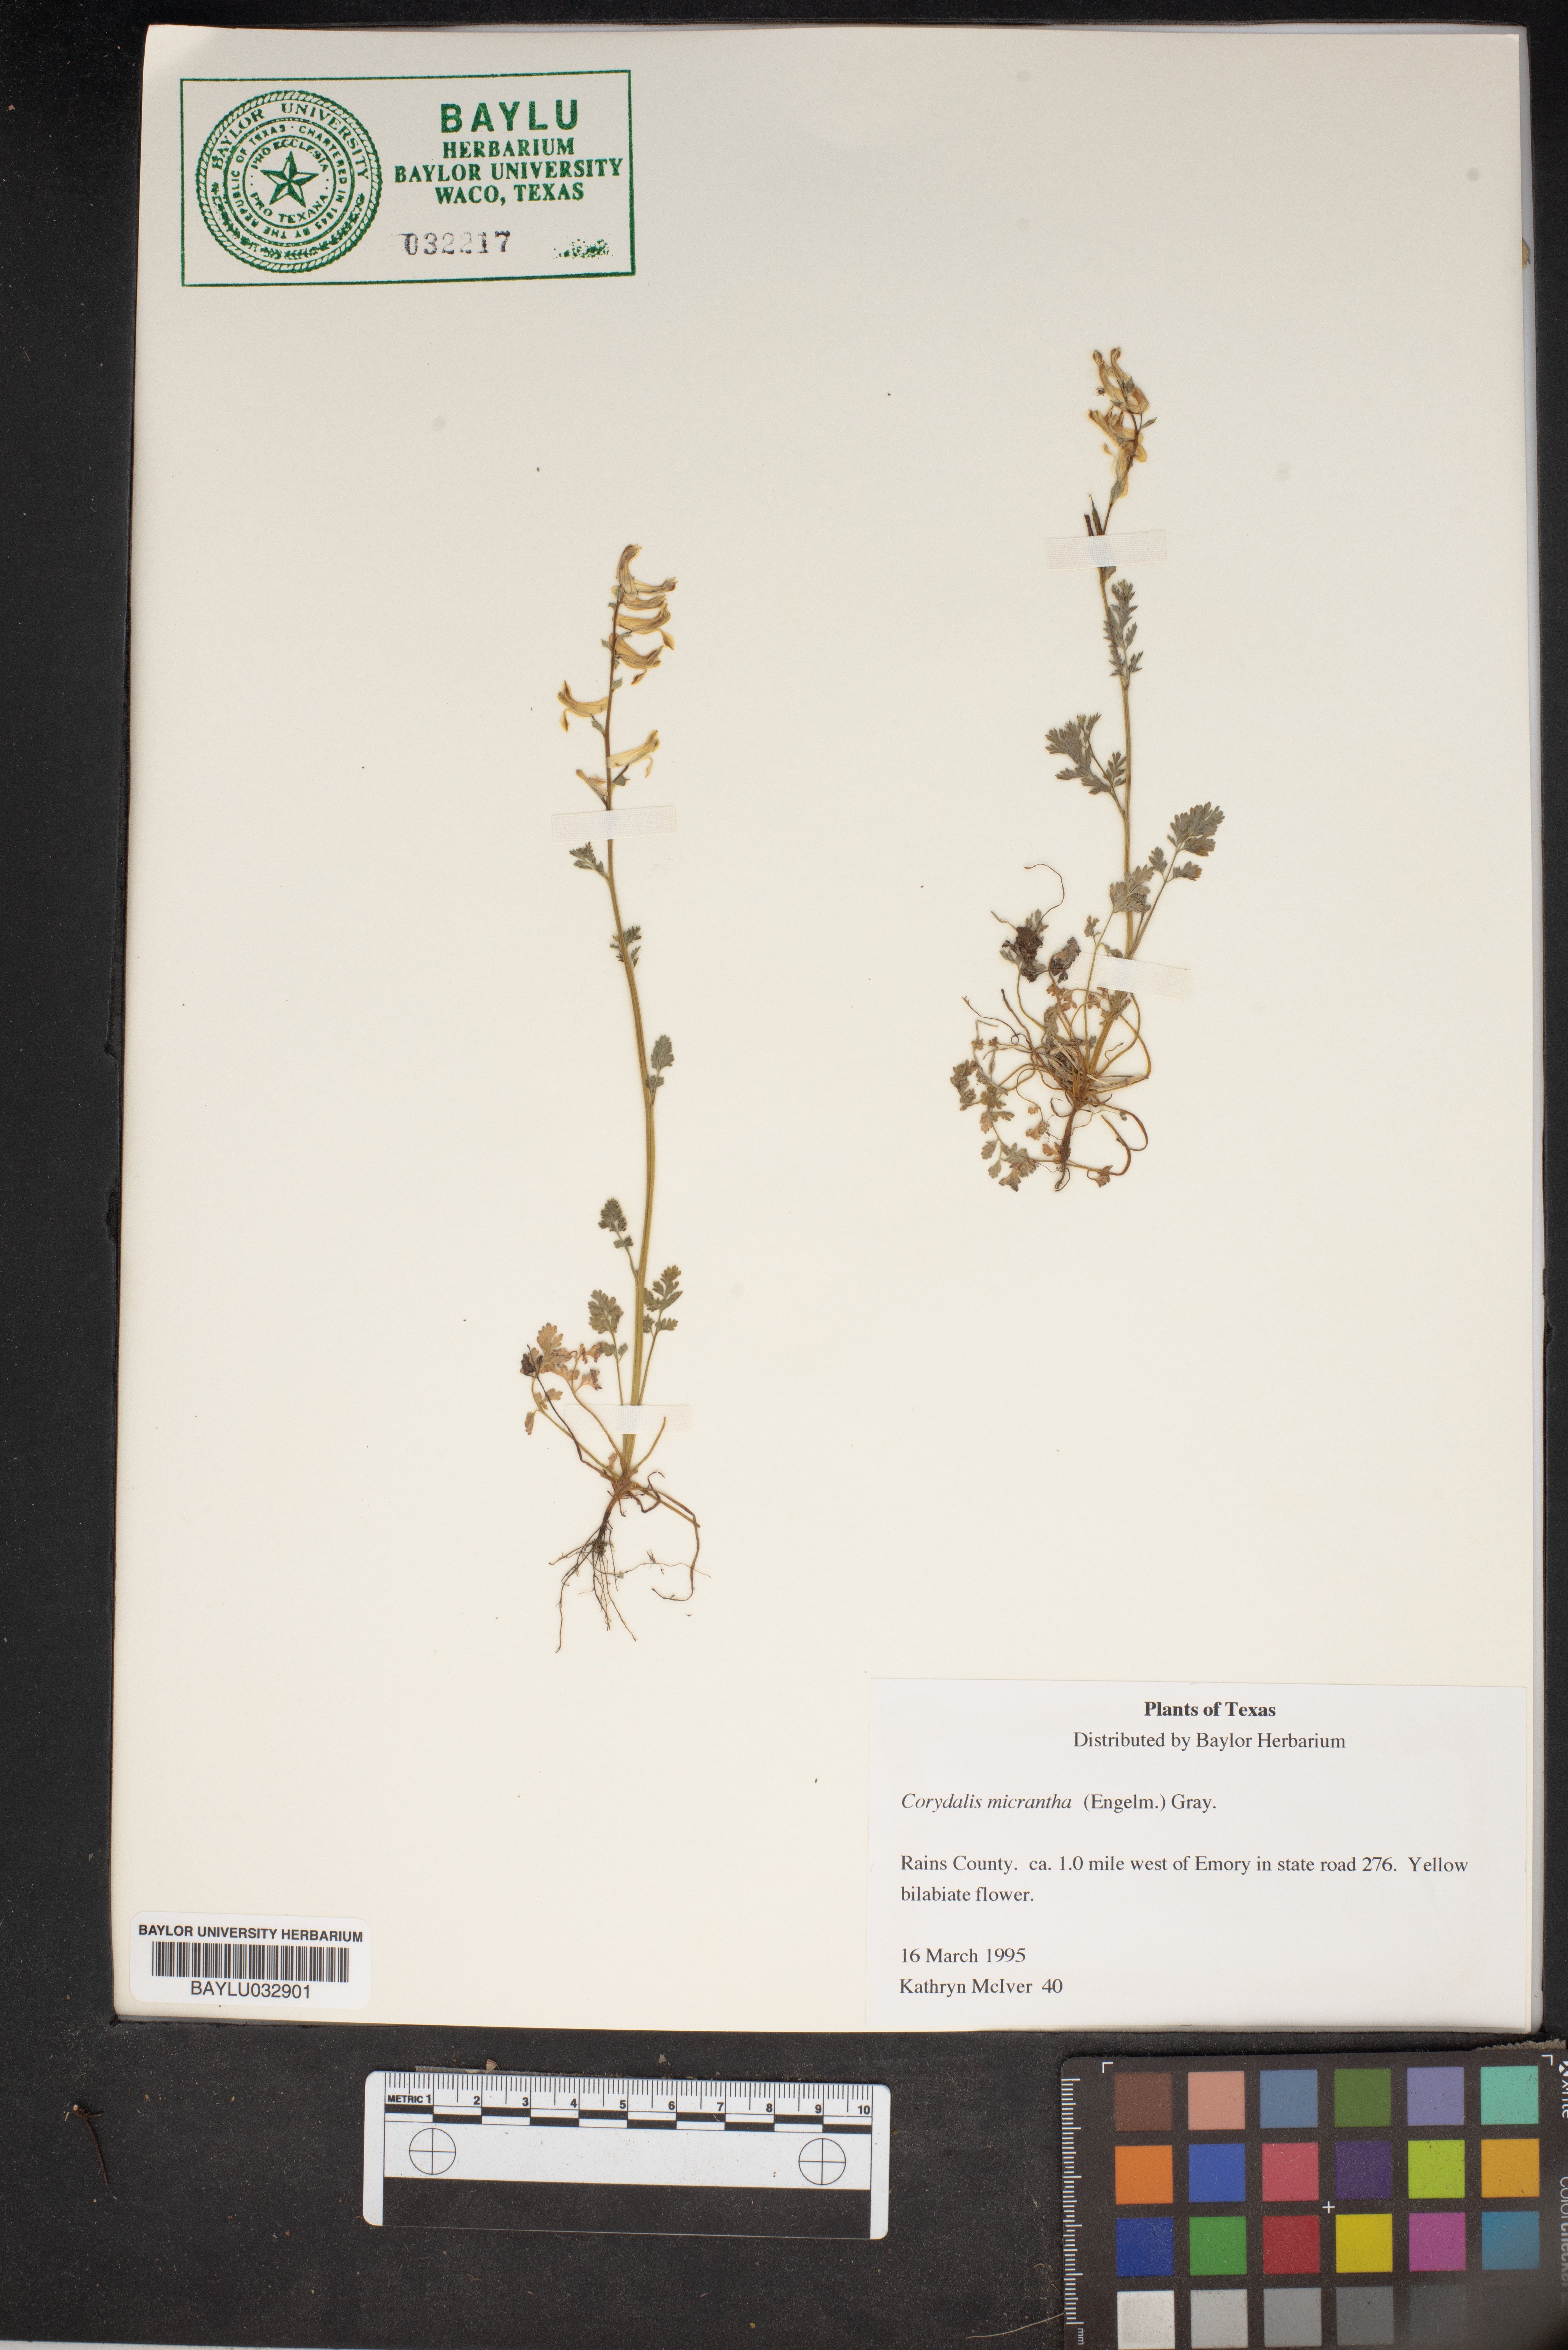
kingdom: Plantae
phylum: Tracheophyta
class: Magnoliopsida
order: Ranunculales
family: Papaveraceae
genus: Corydalis
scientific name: Corydalis micrantha
